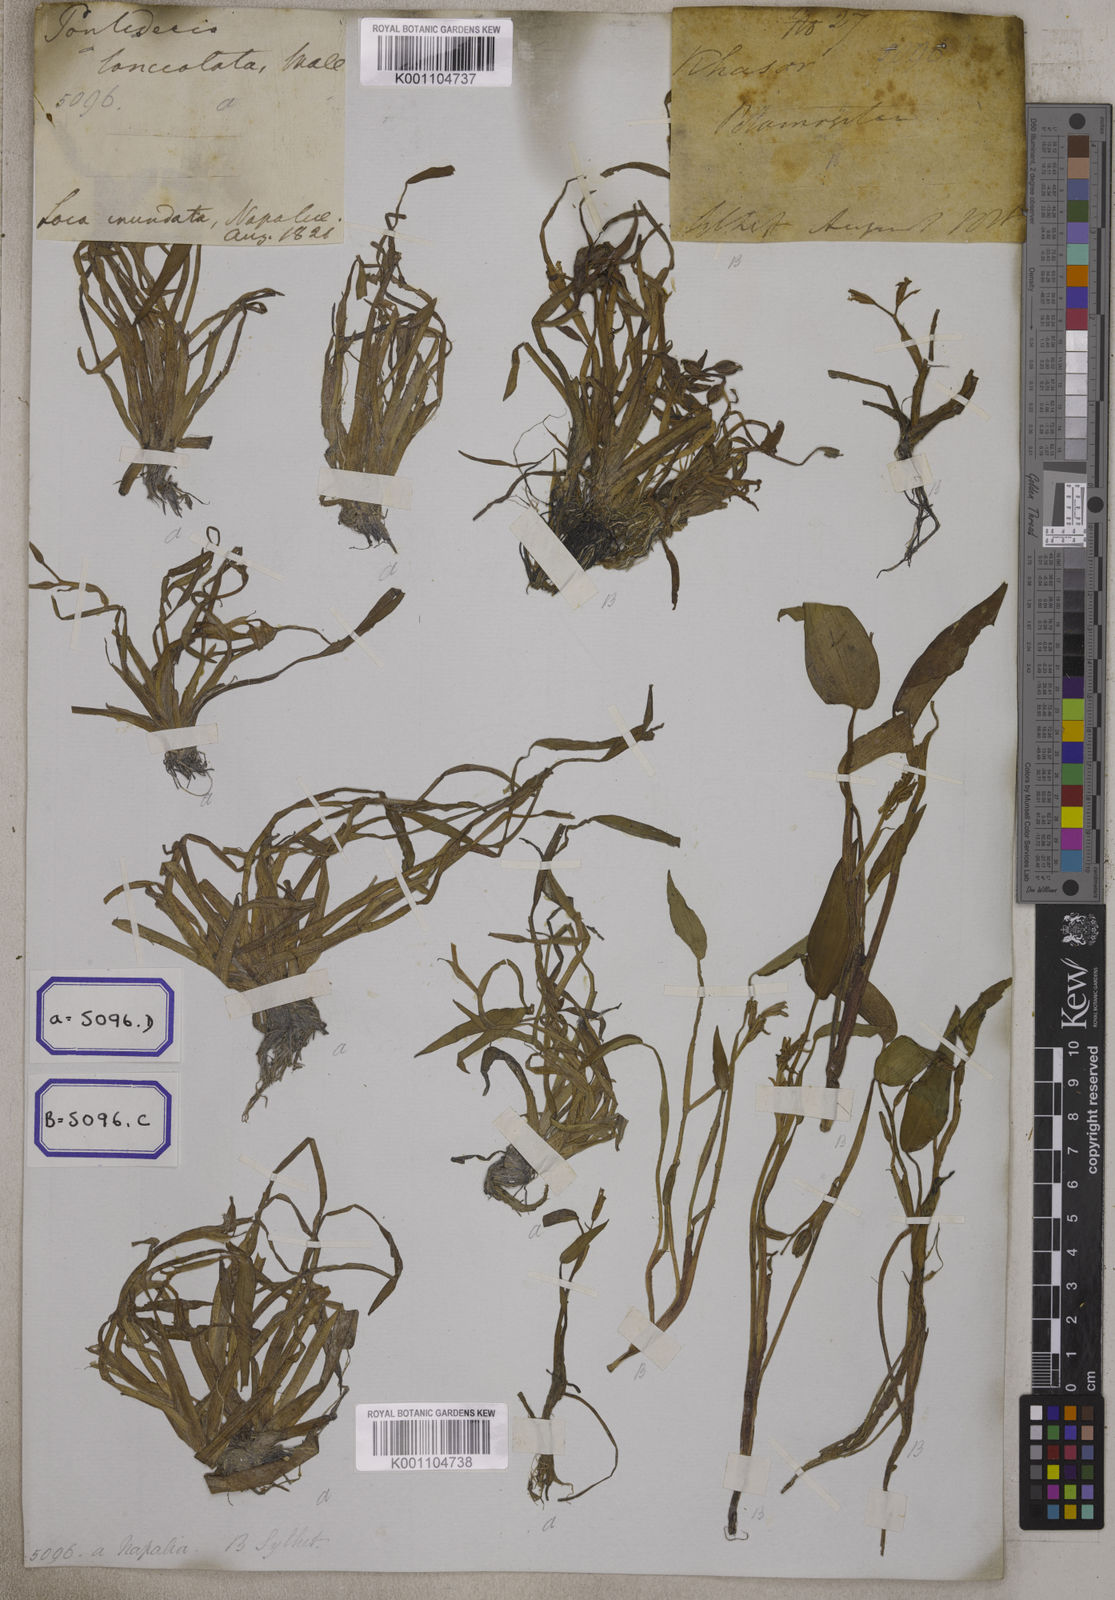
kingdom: Plantae
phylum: Tracheophyta
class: Liliopsida
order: Commelinales
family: Pontederiaceae
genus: Pontederia
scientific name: Pontederia plantaginea
